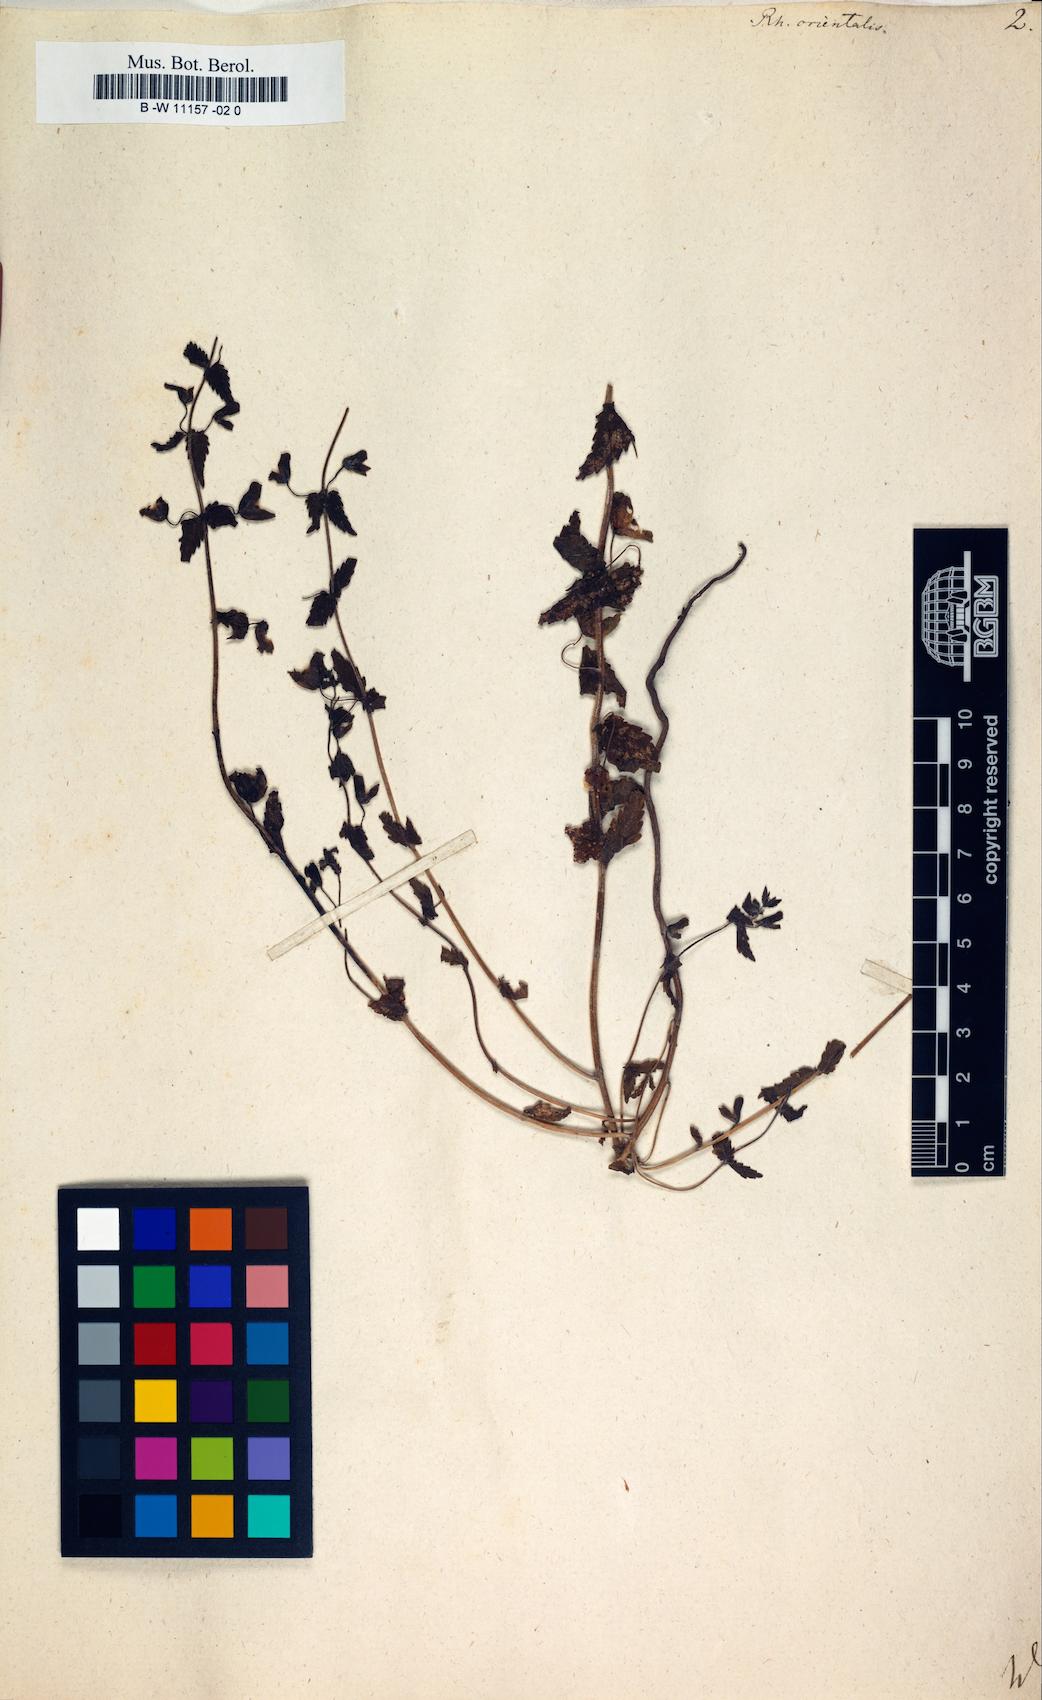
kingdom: Plantae
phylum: Tracheophyta
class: Magnoliopsida
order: Lamiales
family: Orobanchaceae
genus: Rhynchocorys
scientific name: Rhynchocorys
